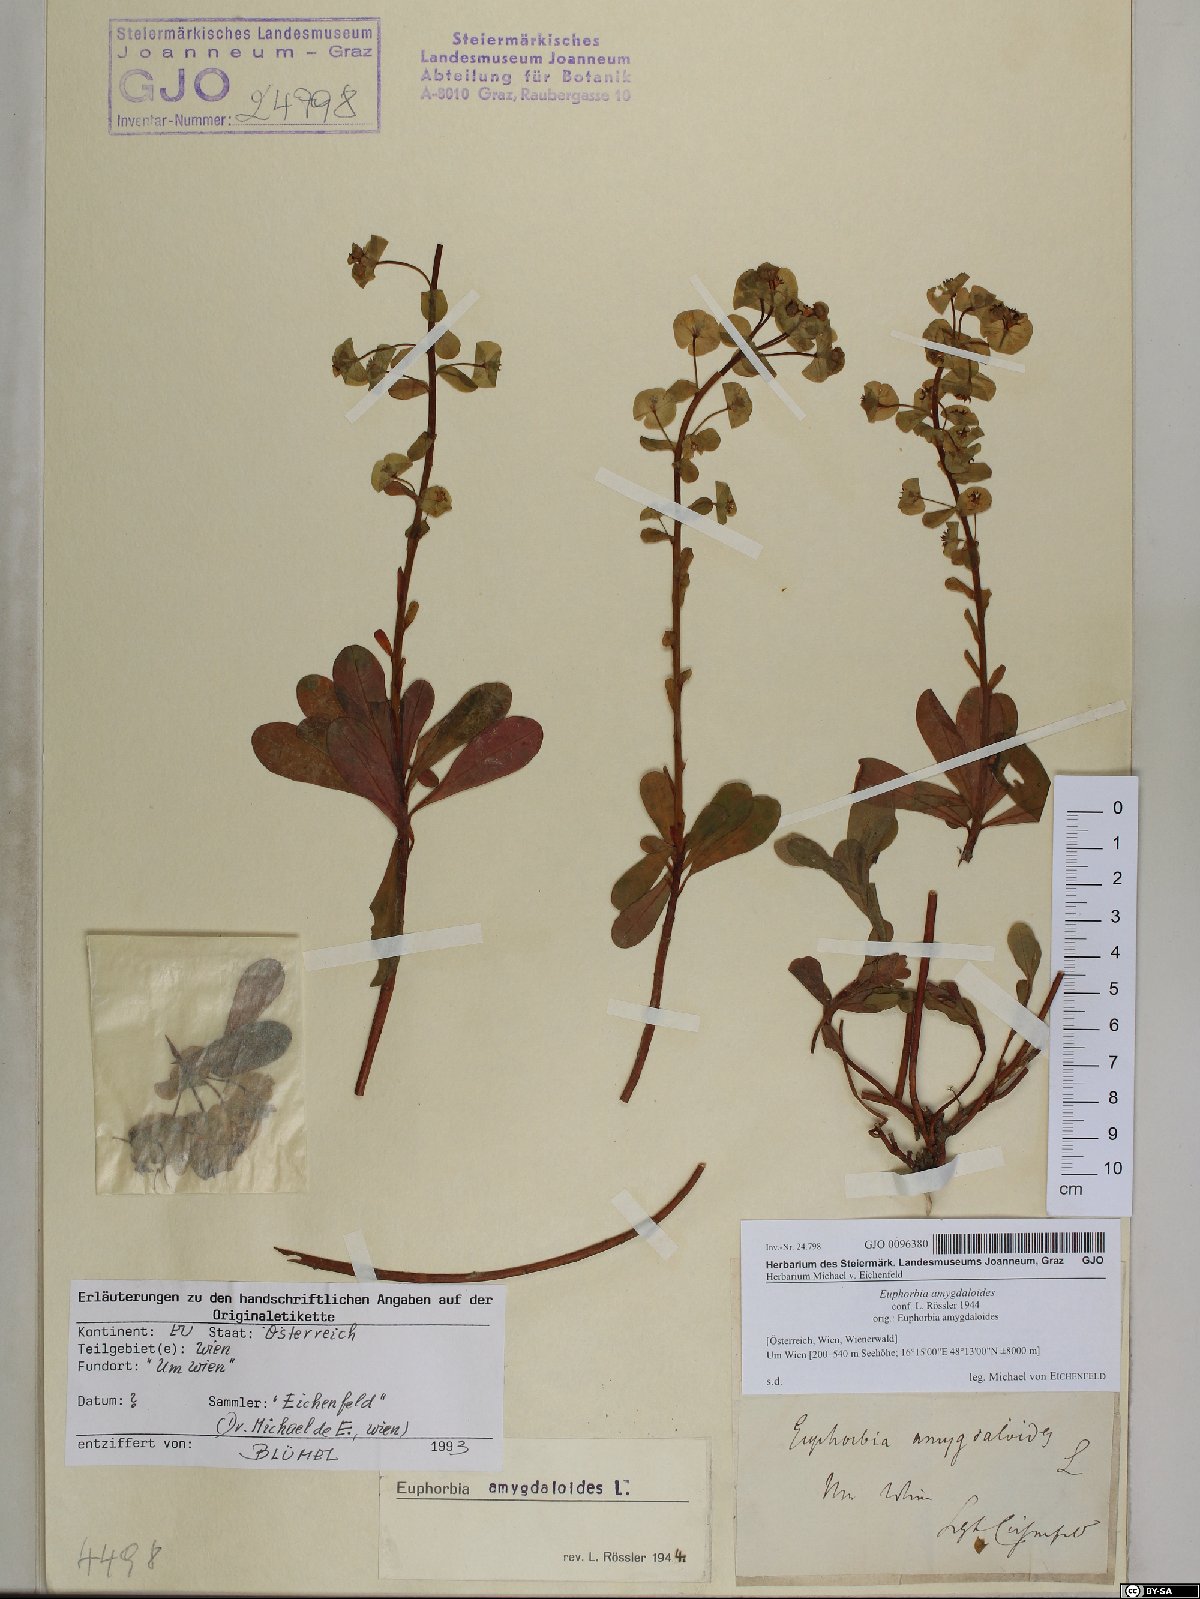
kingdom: Plantae
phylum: Tracheophyta
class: Magnoliopsida
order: Malpighiales
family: Euphorbiaceae
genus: Euphorbia
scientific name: Euphorbia amygdaloides
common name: Wood spurge
